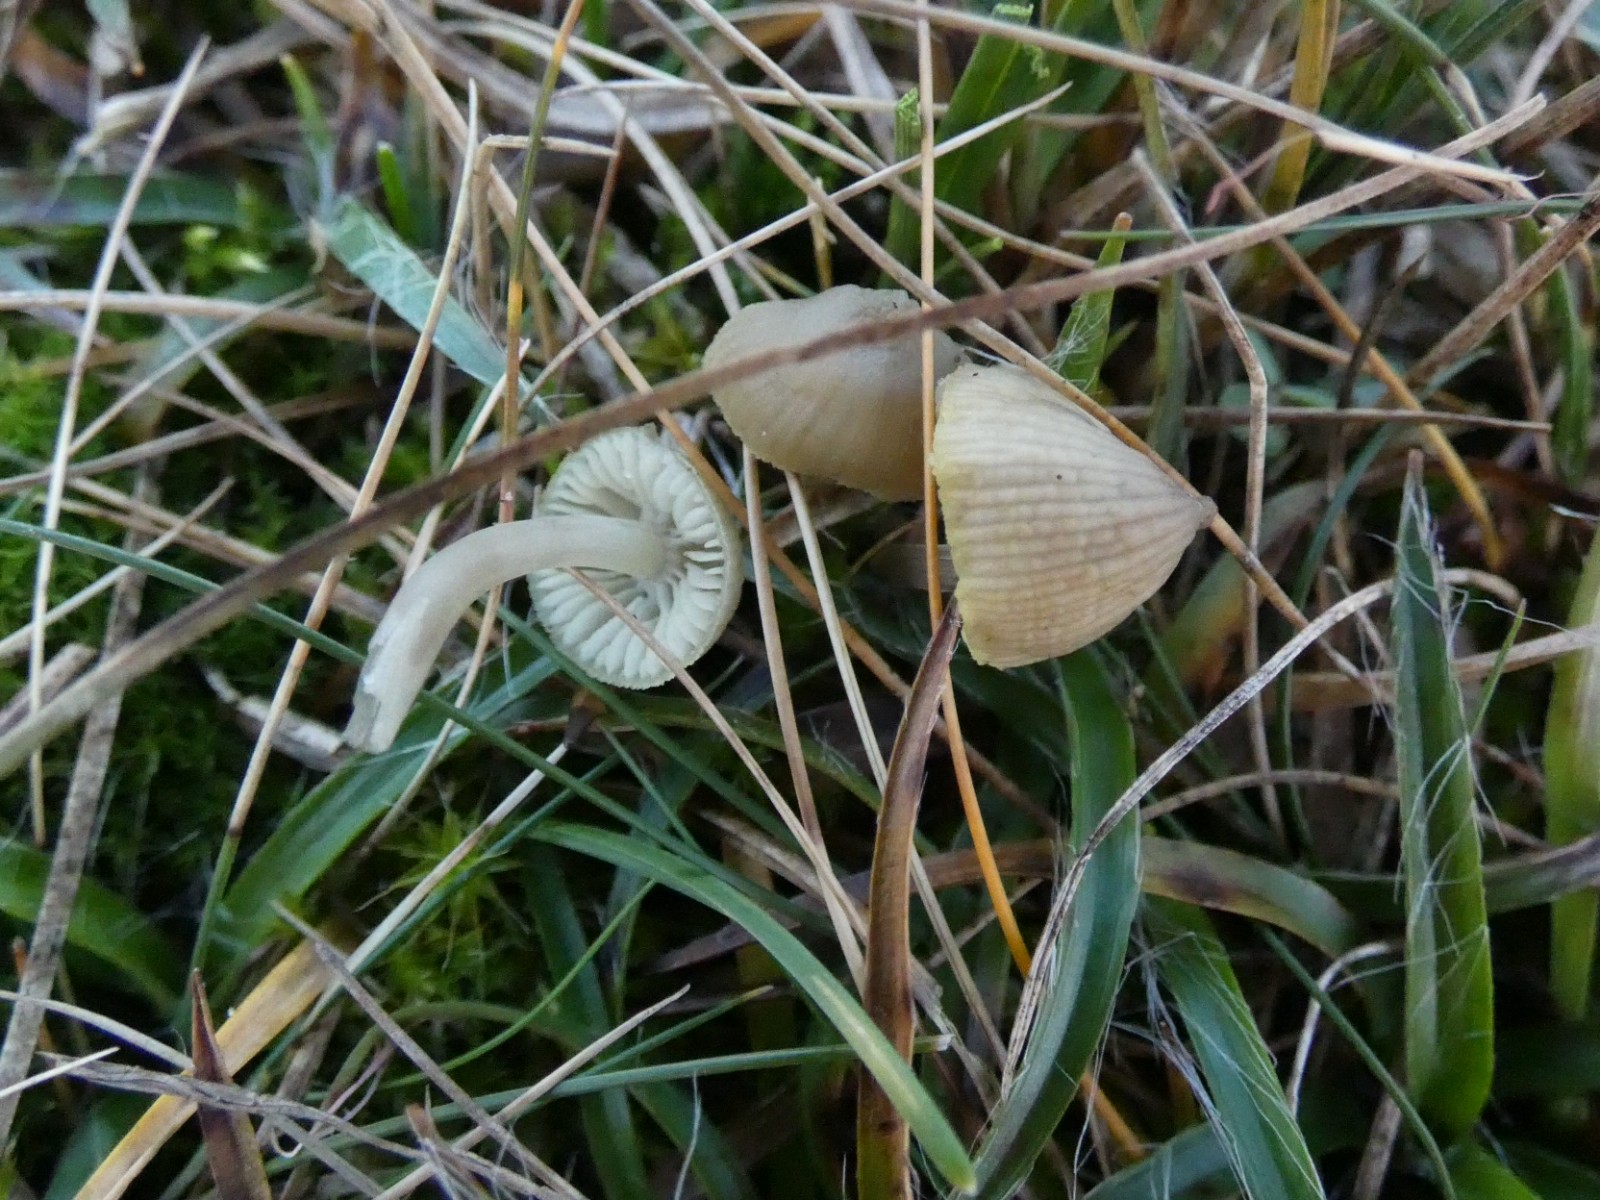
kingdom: Fungi
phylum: Basidiomycota
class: Agaricomycetes
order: Agaricales
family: Mycenaceae
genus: Mycena
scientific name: Mycena chlorantha
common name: klit-huesvamp
